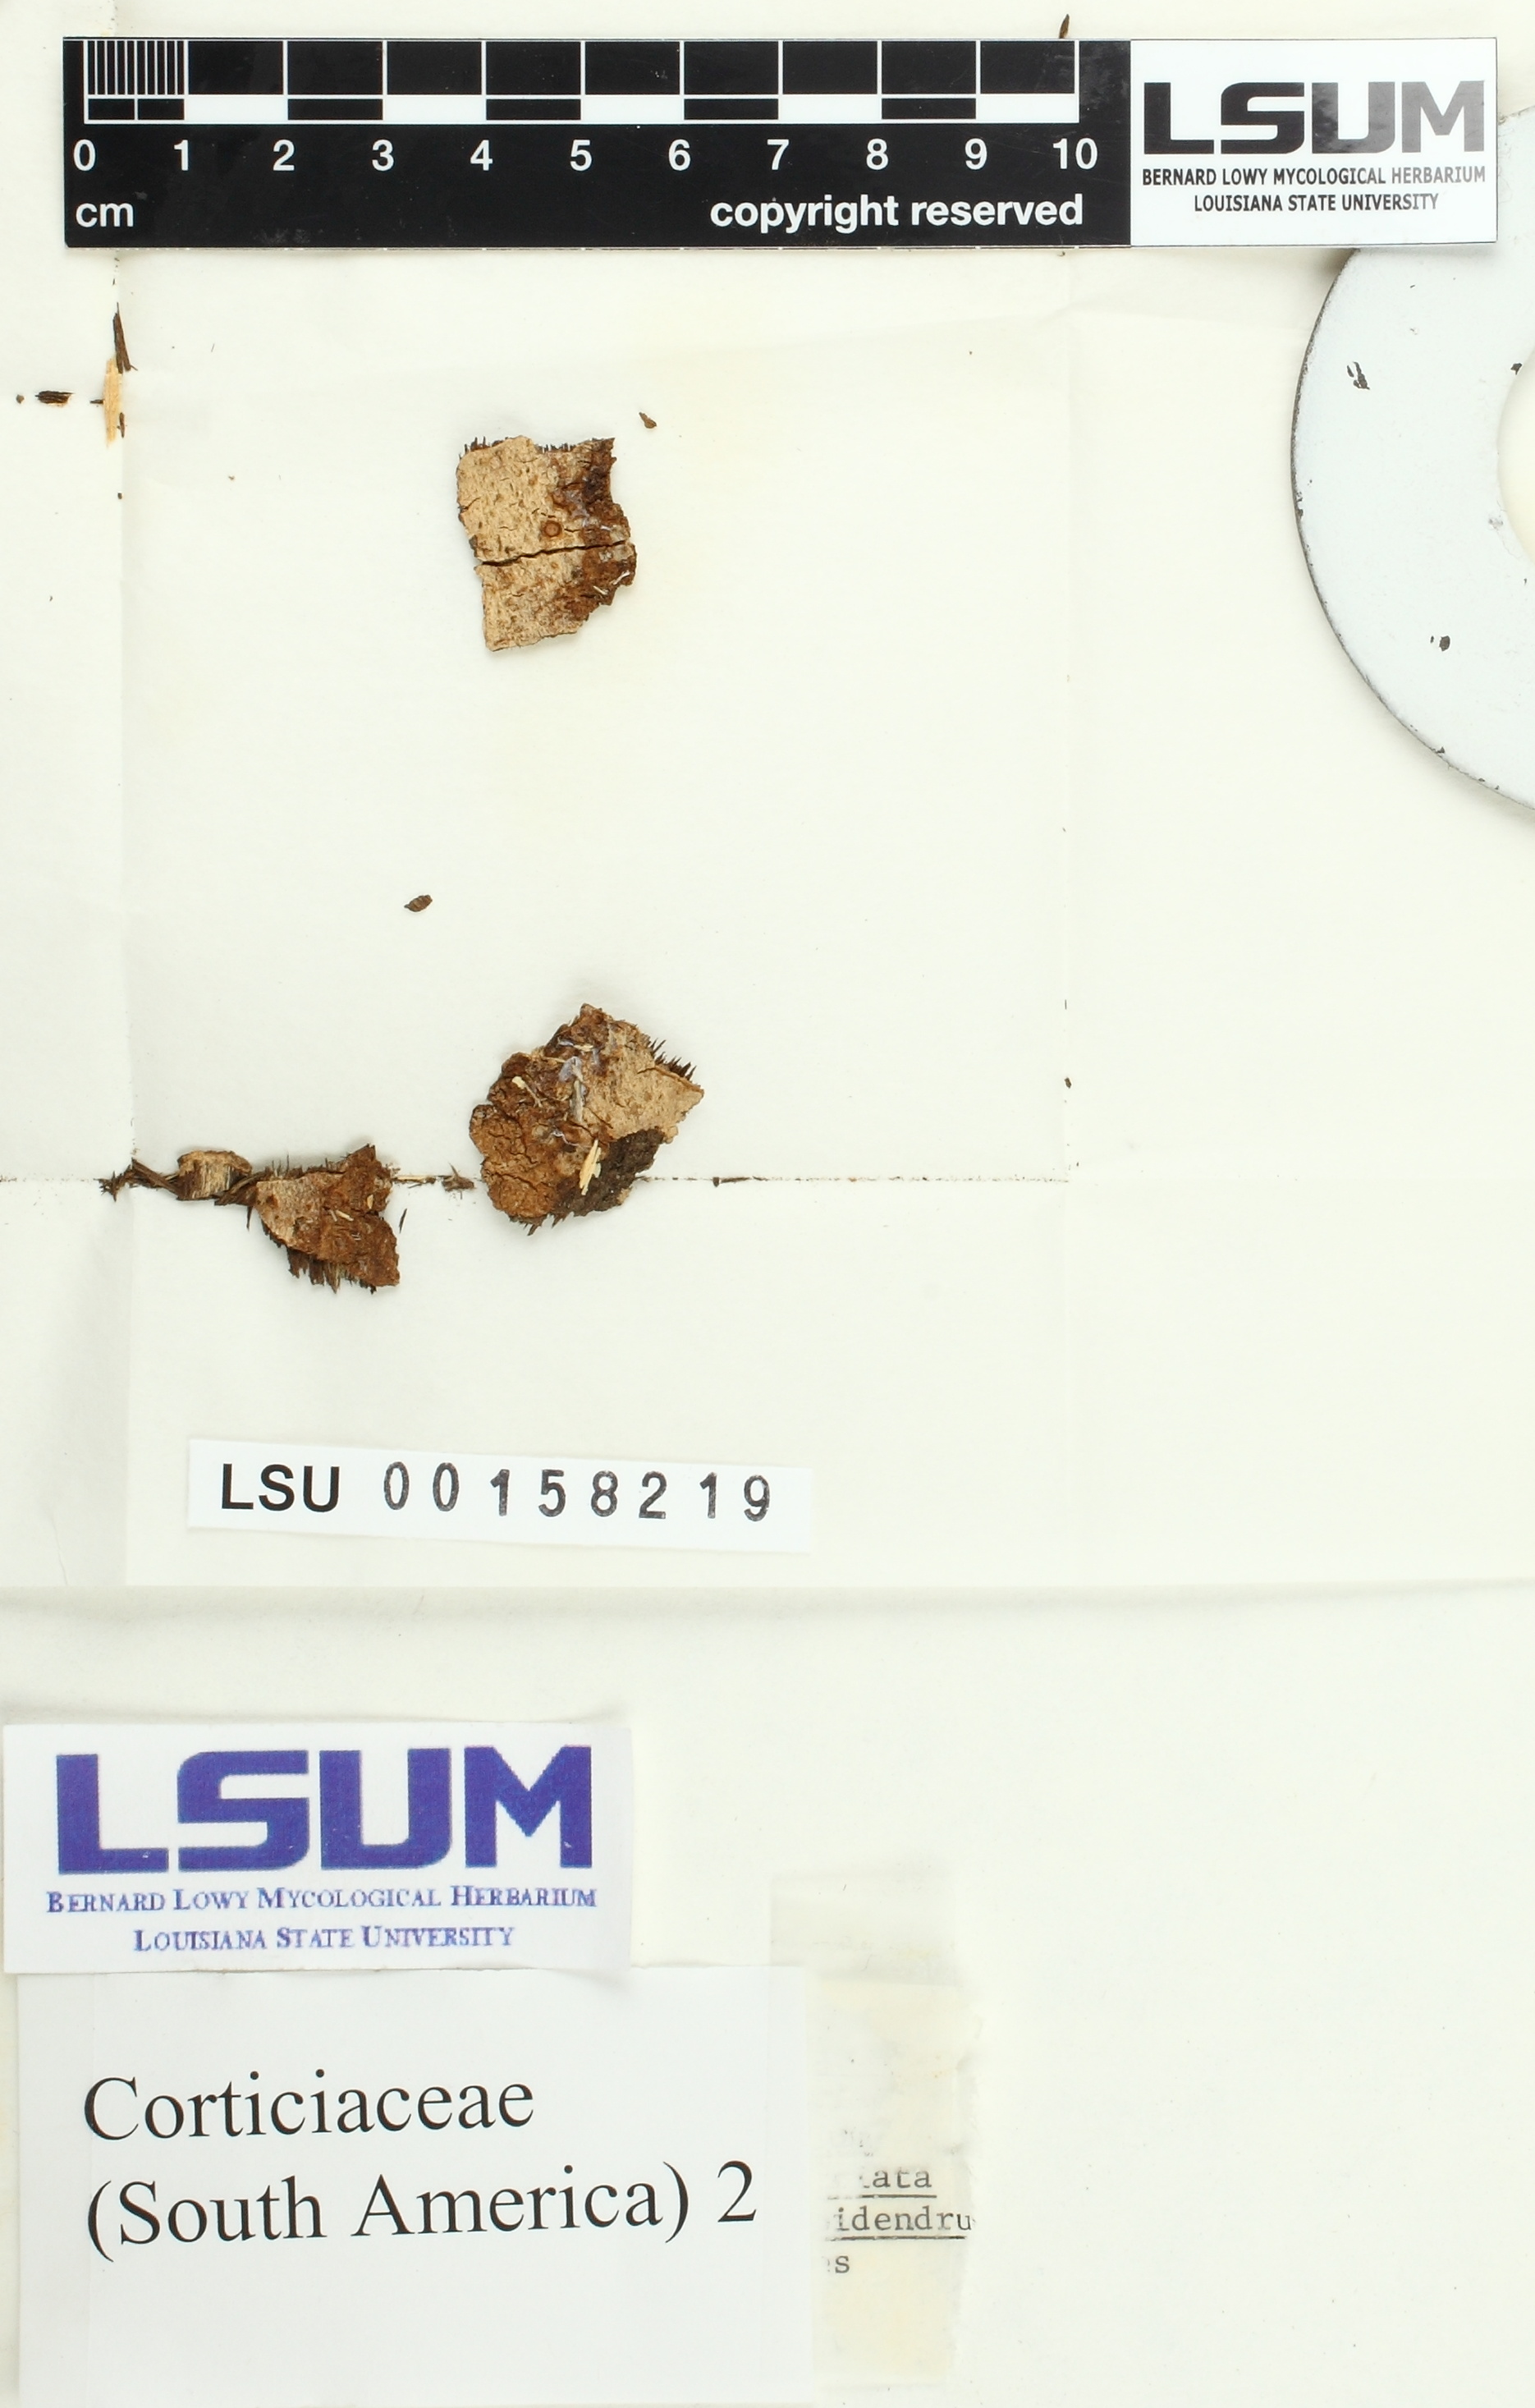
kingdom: Fungi
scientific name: Fungi
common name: Fungi
